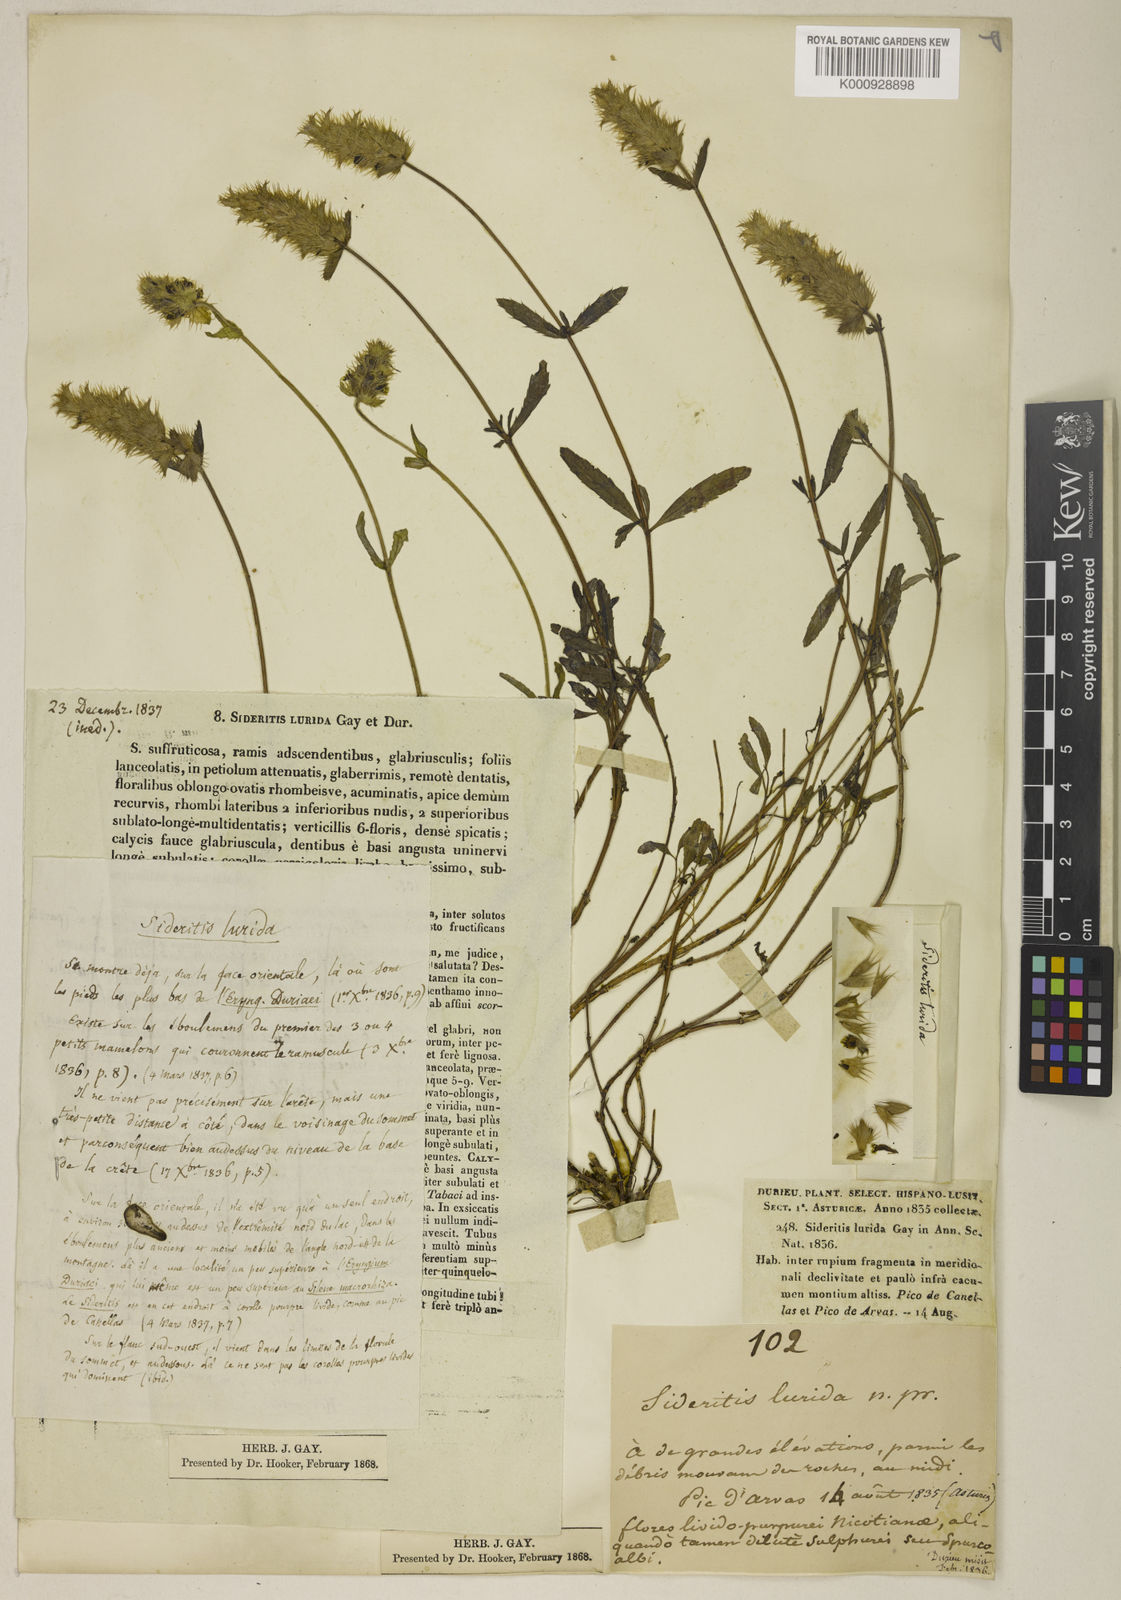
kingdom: Plantae
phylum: Tracheophyta
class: Magnoliopsida
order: Lamiales
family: Lamiaceae
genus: Sideritis
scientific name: Sideritis hyssopifolia
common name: Mountain tea
